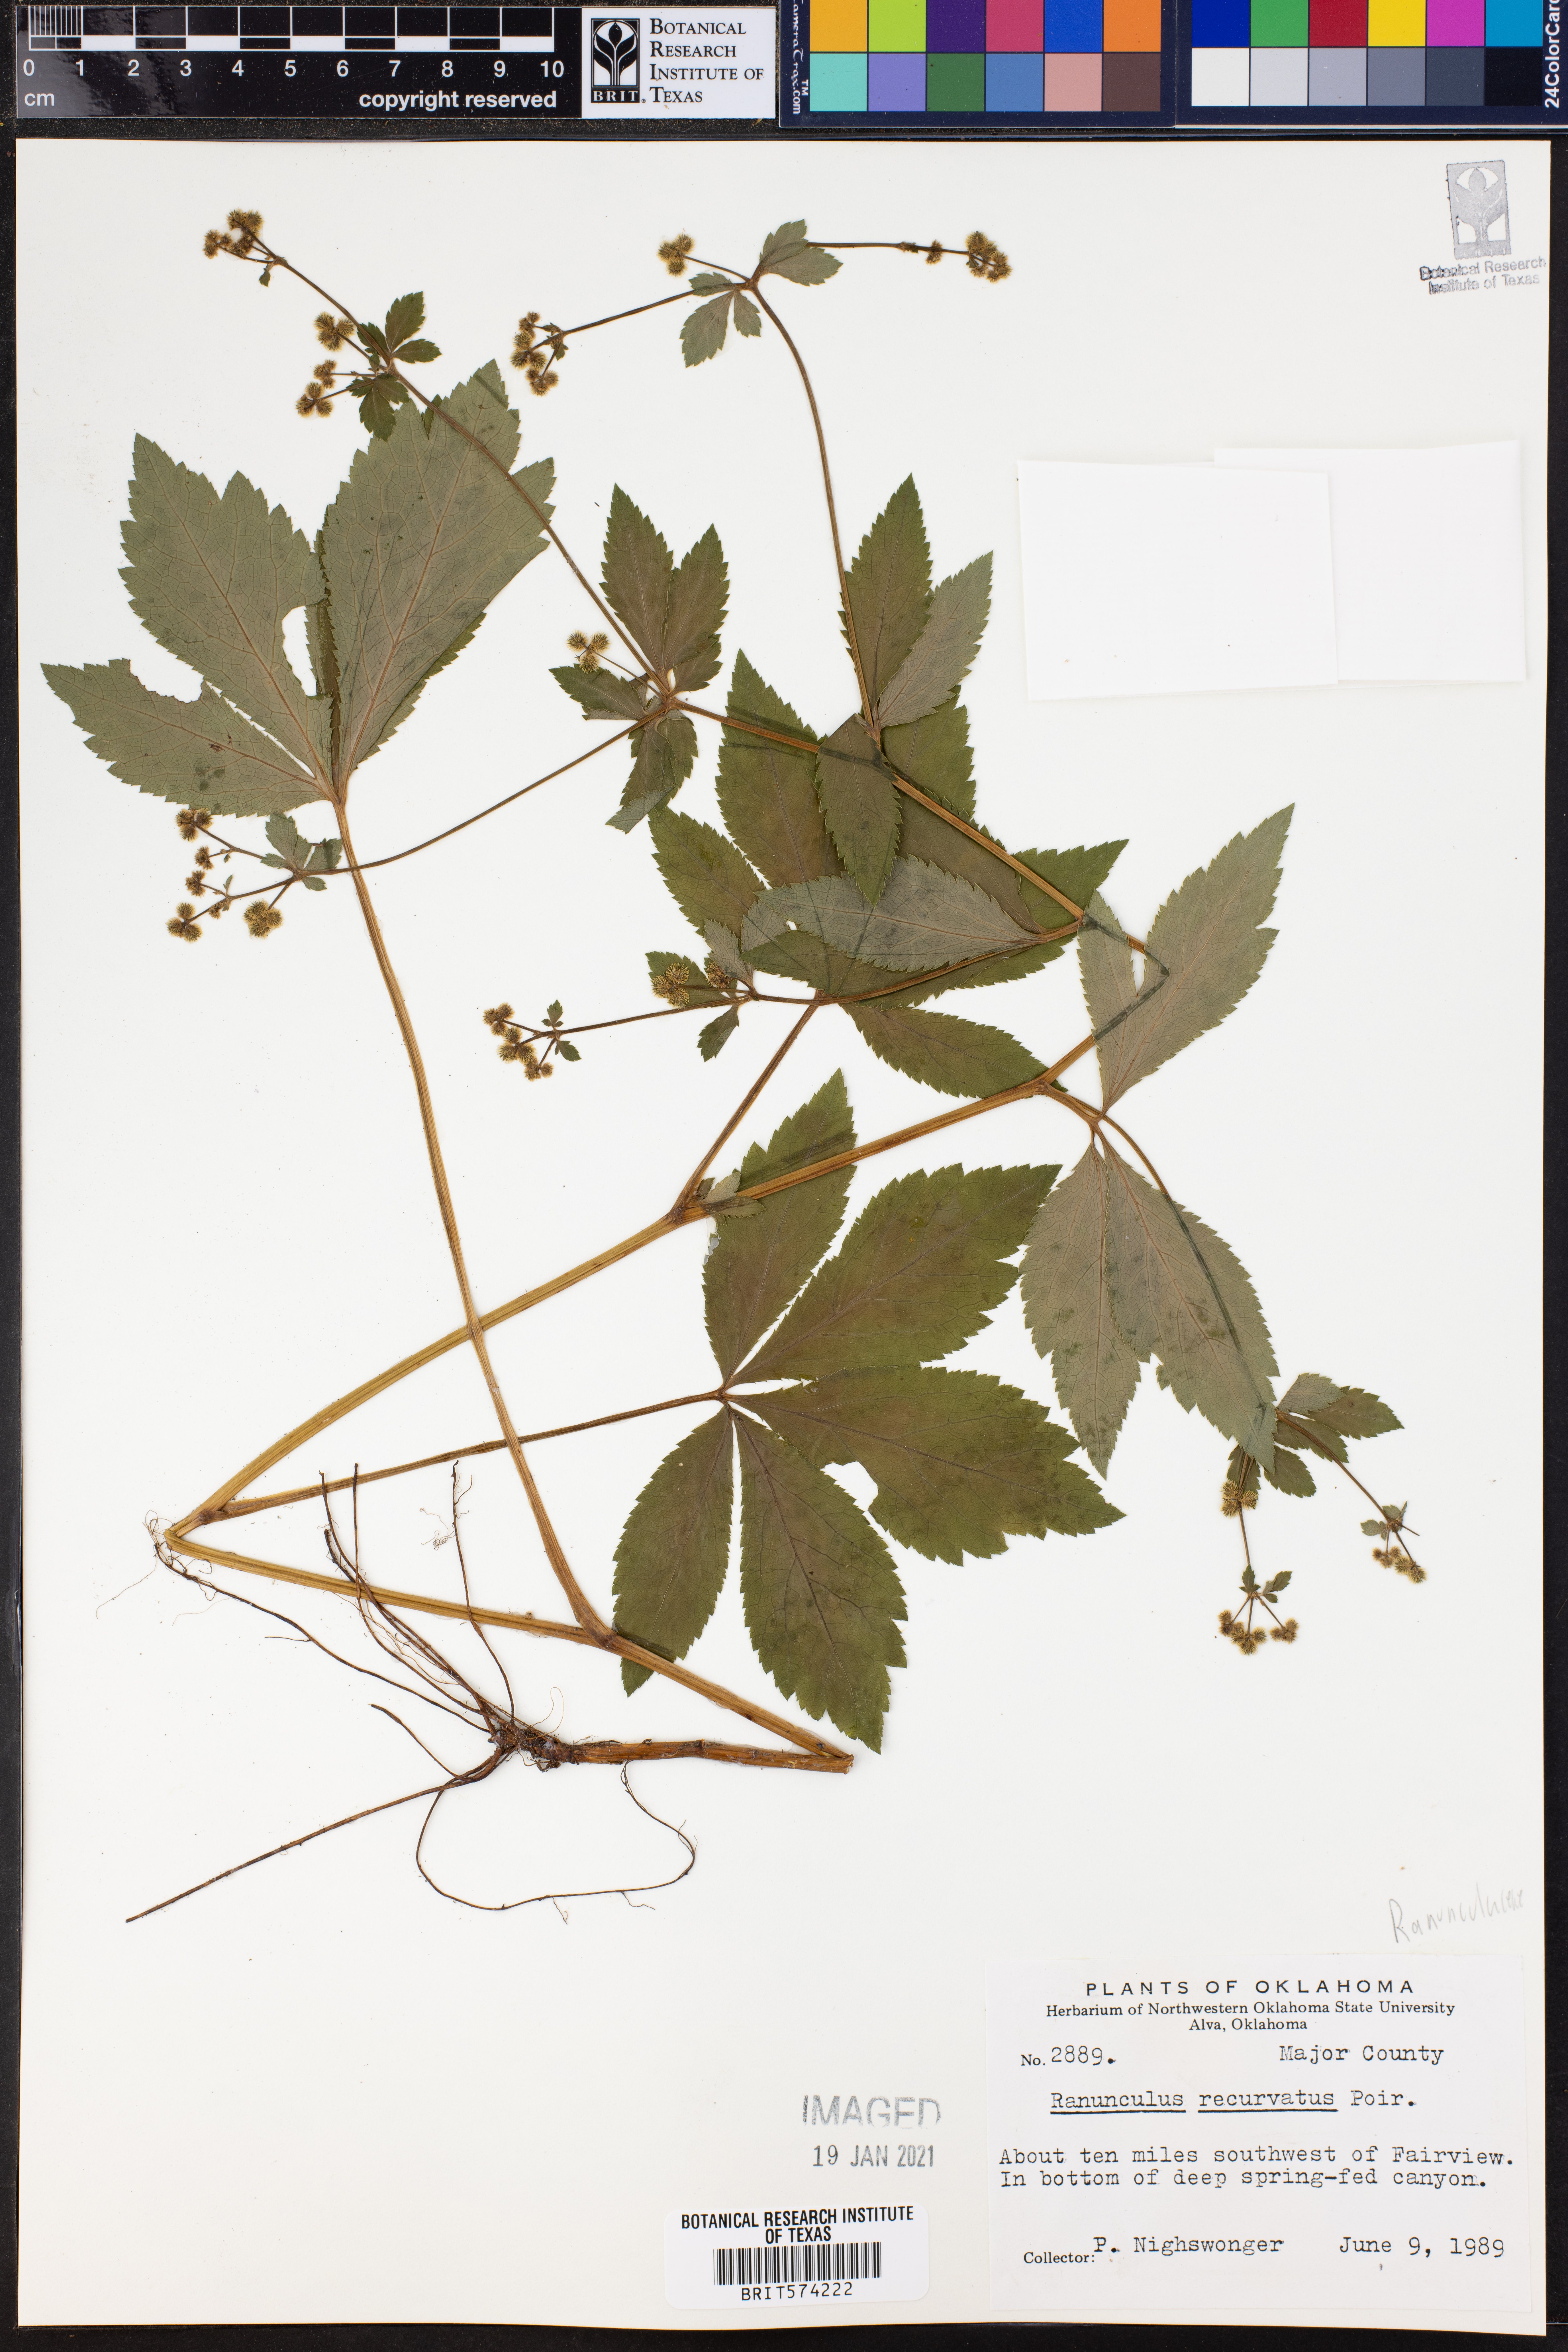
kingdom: Plantae
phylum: Tracheophyta
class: Magnoliopsida
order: Ranunculales
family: Ranunculaceae
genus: Ranunculus
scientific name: Ranunculus recurvatus
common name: Blisterwort
